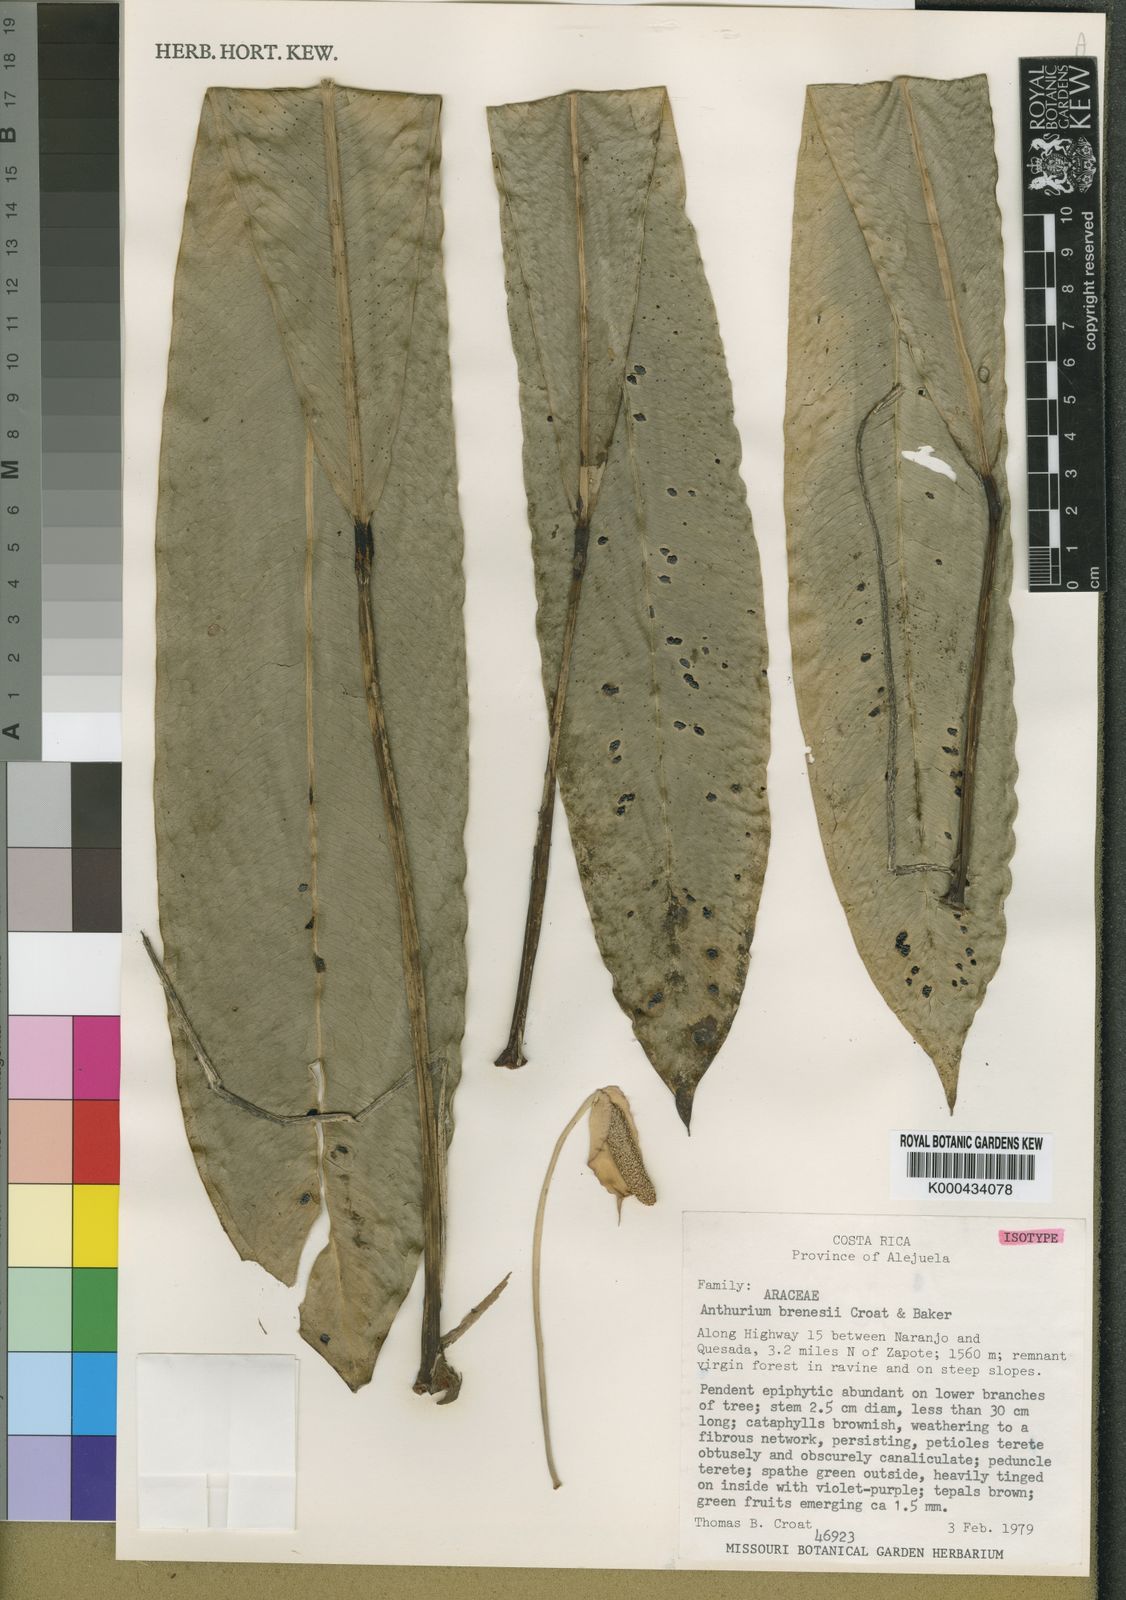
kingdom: Plantae
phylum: Tracheophyta
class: Liliopsida
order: Alismatales
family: Araceae
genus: Anthurium
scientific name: Anthurium brenesii
